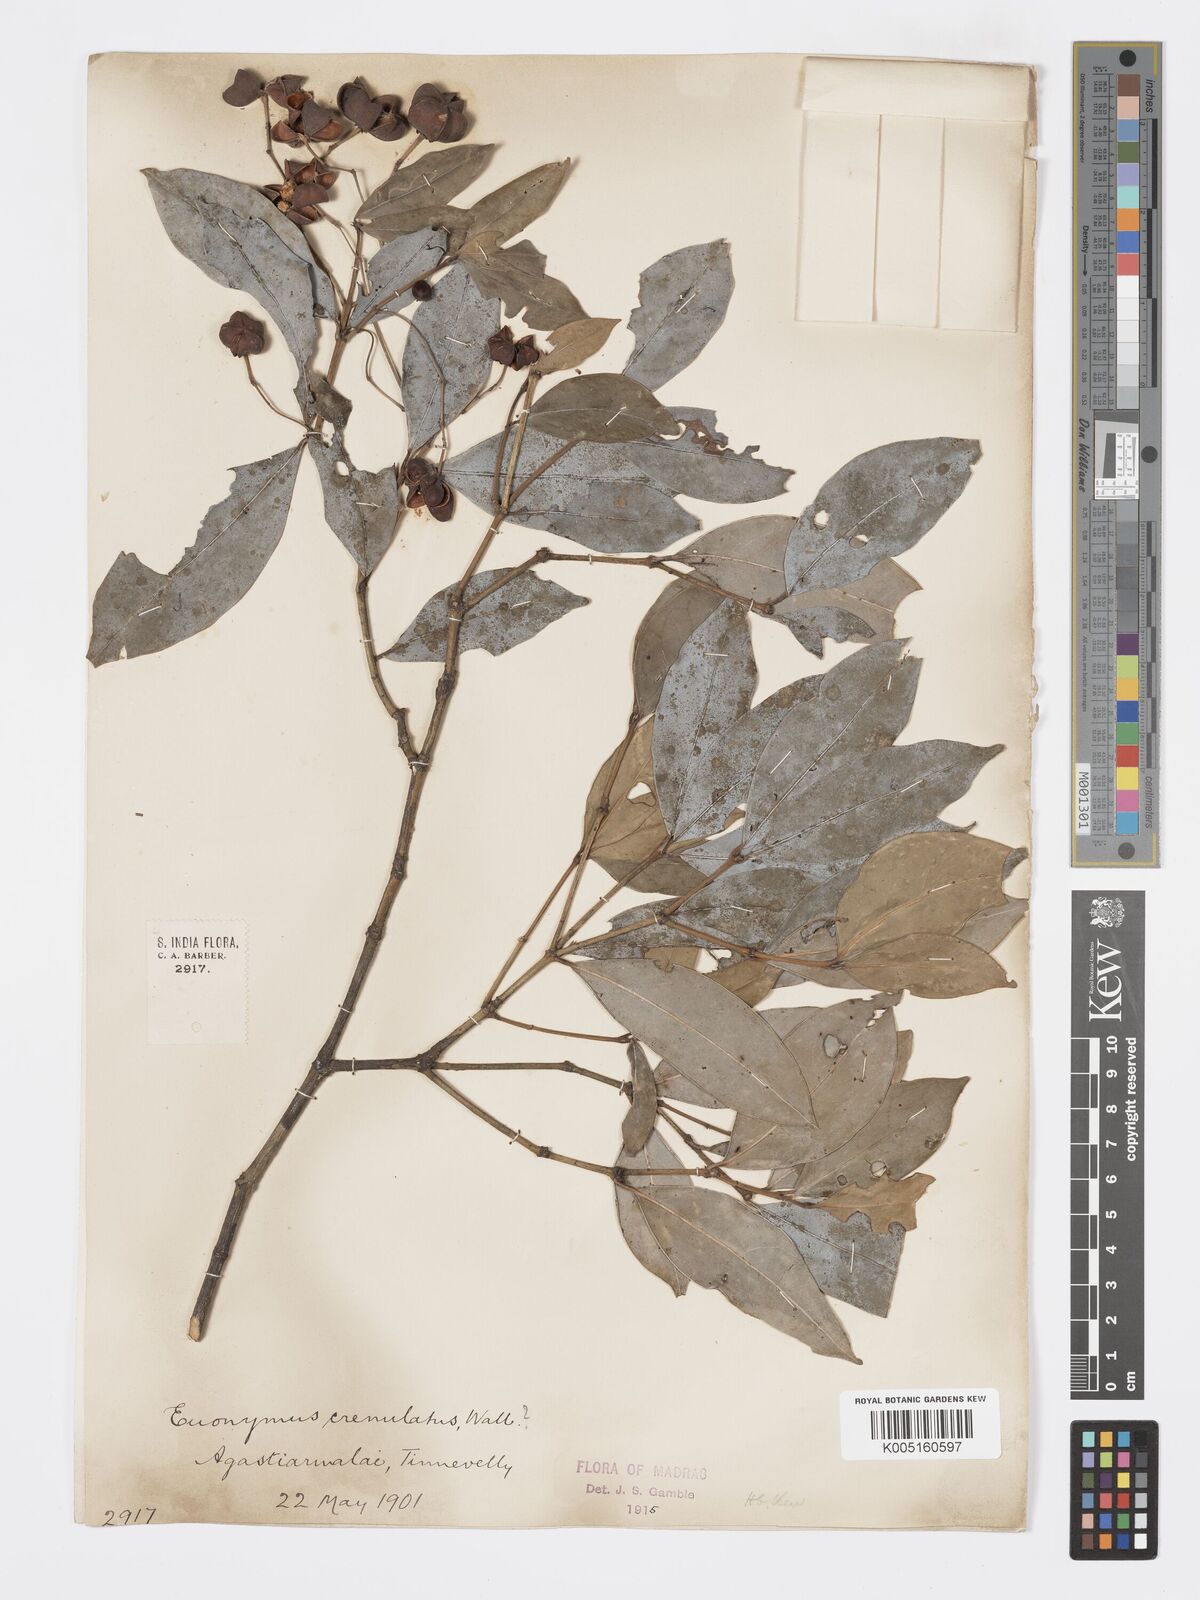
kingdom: Plantae
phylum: Tracheophyta
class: Magnoliopsida
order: Celastrales
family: Celastraceae
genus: Euonymus
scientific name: Euonymus crenulatus
